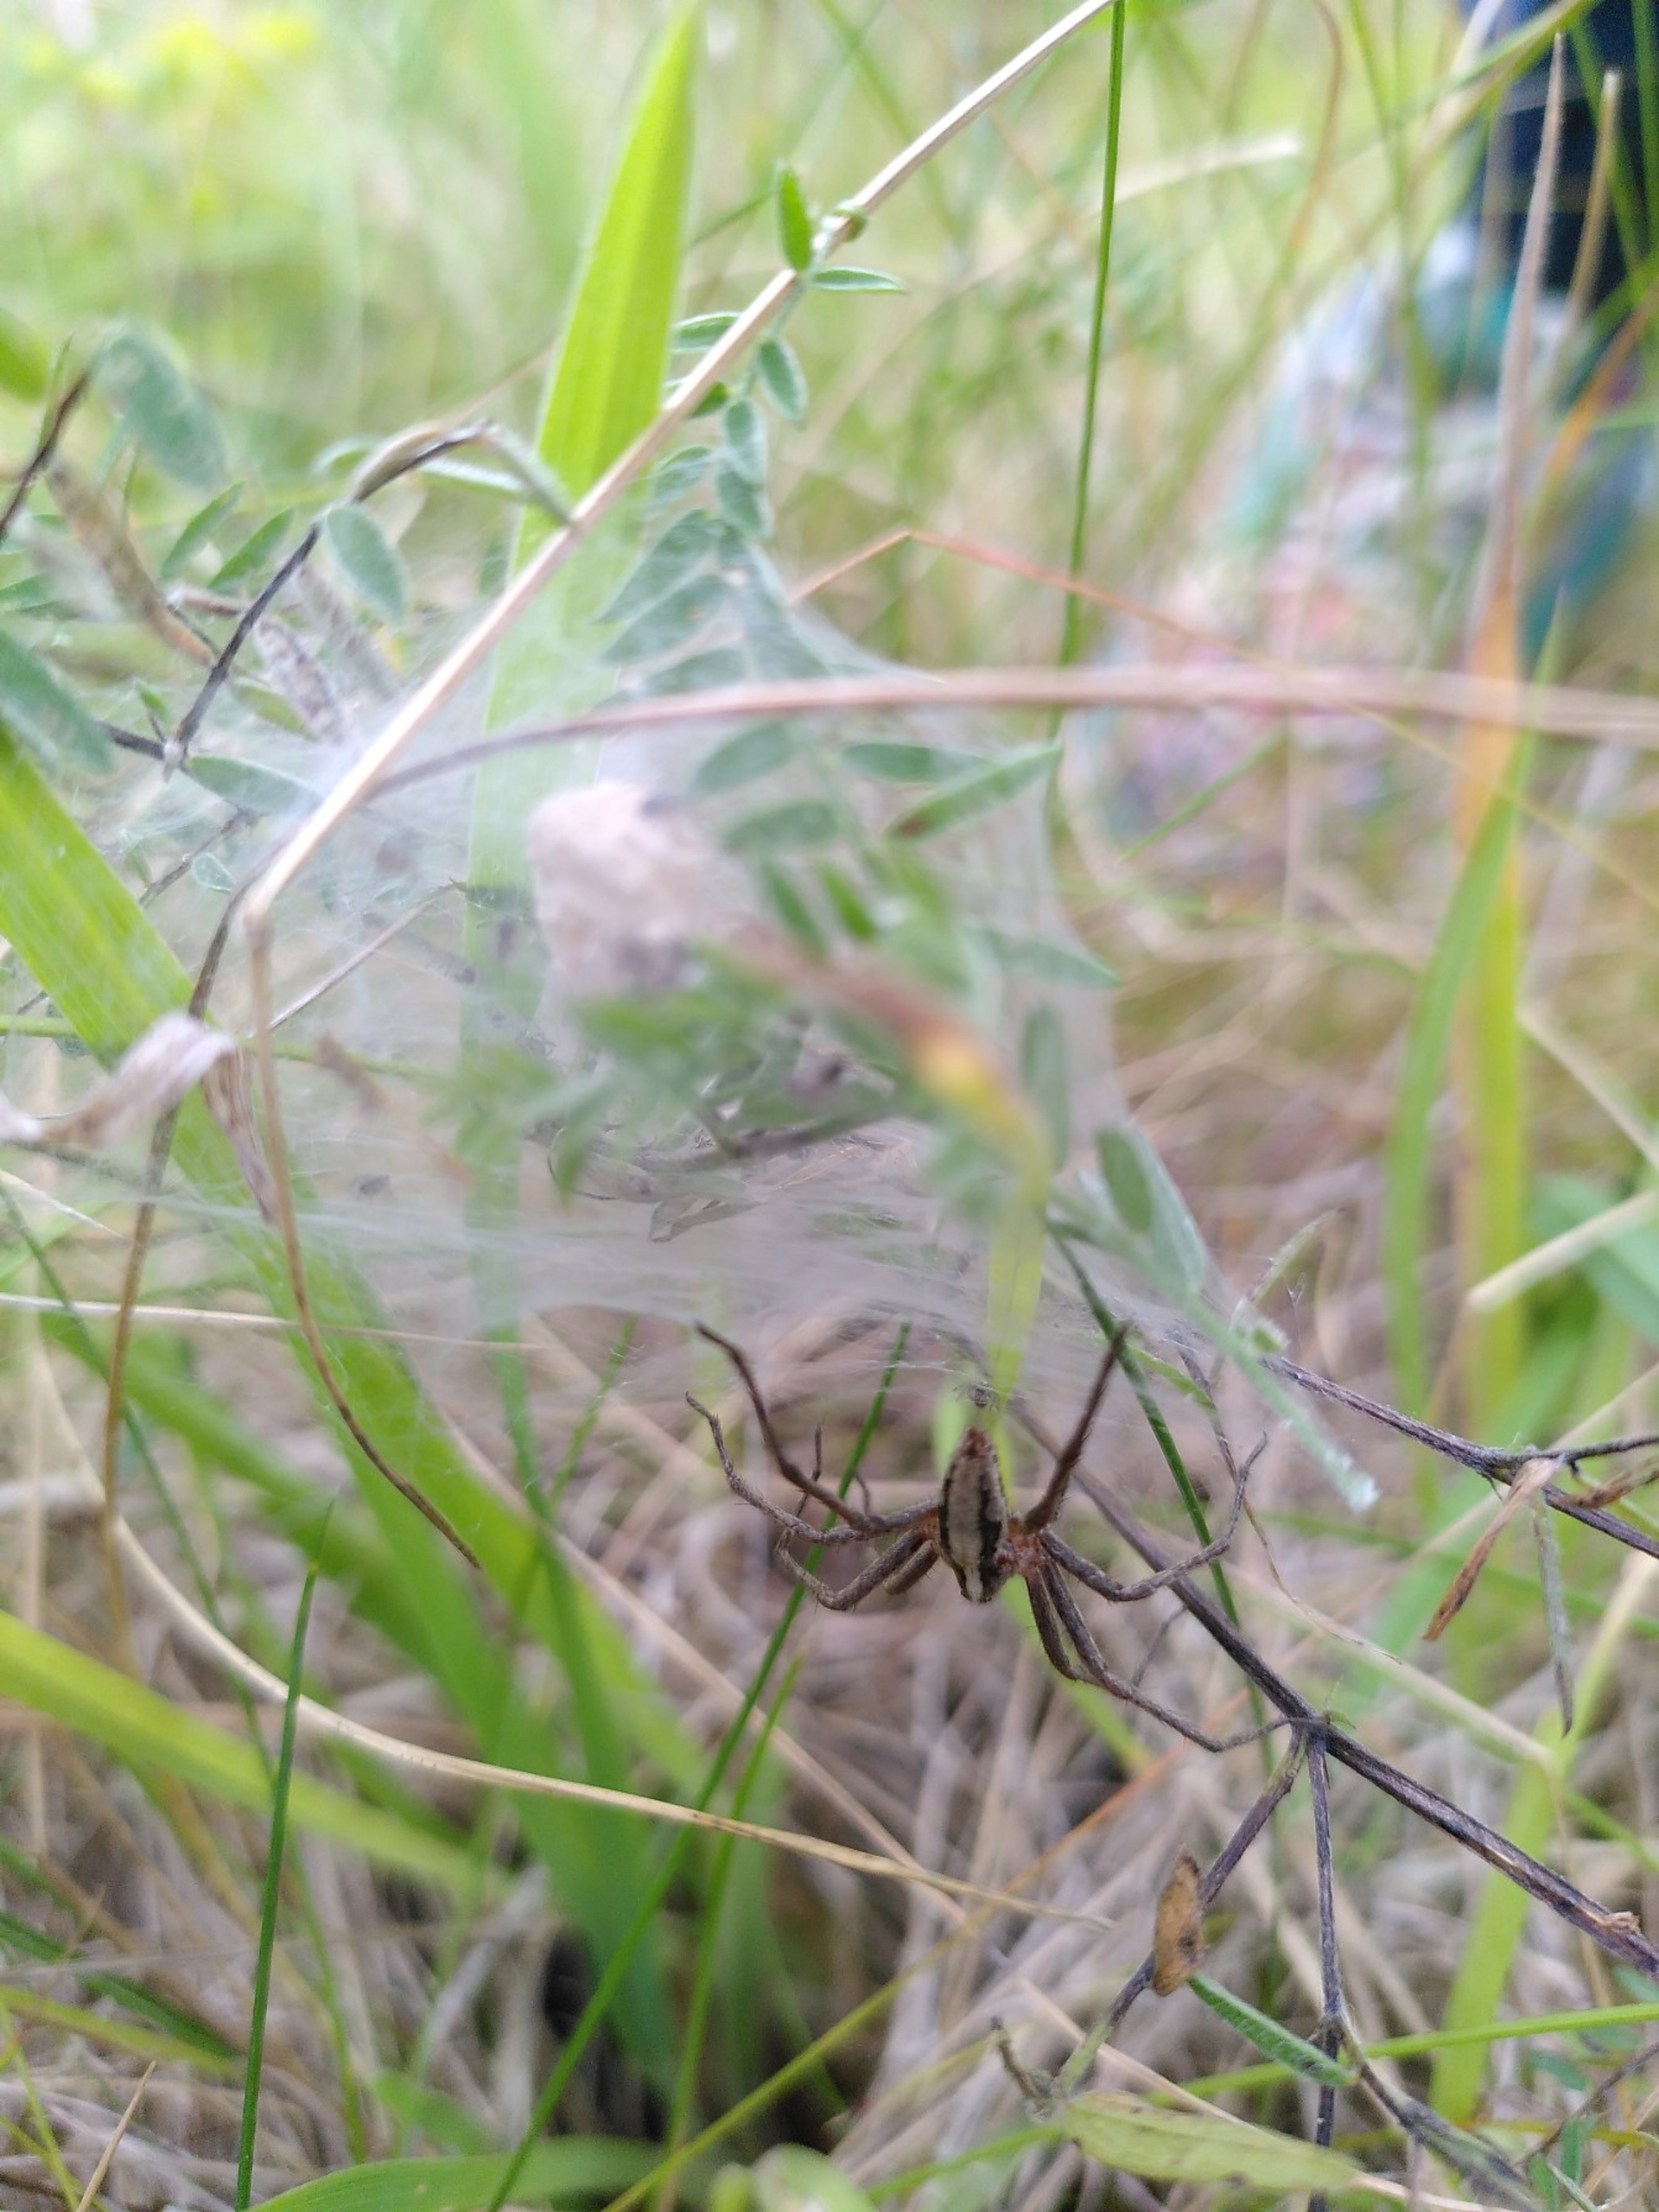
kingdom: Animalia
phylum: Arthropoda
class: Arachnida
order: Araneae
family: Pisauridae
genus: Pisaura
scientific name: Pisaura mirabilis
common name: Almindelig rovedderkop
